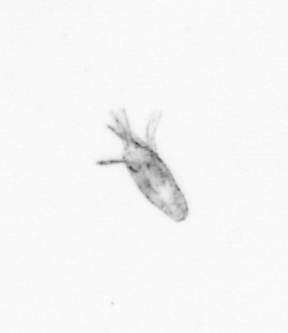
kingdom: Animalia
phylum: Arthropoda
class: Copepoda
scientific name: Copepoda
